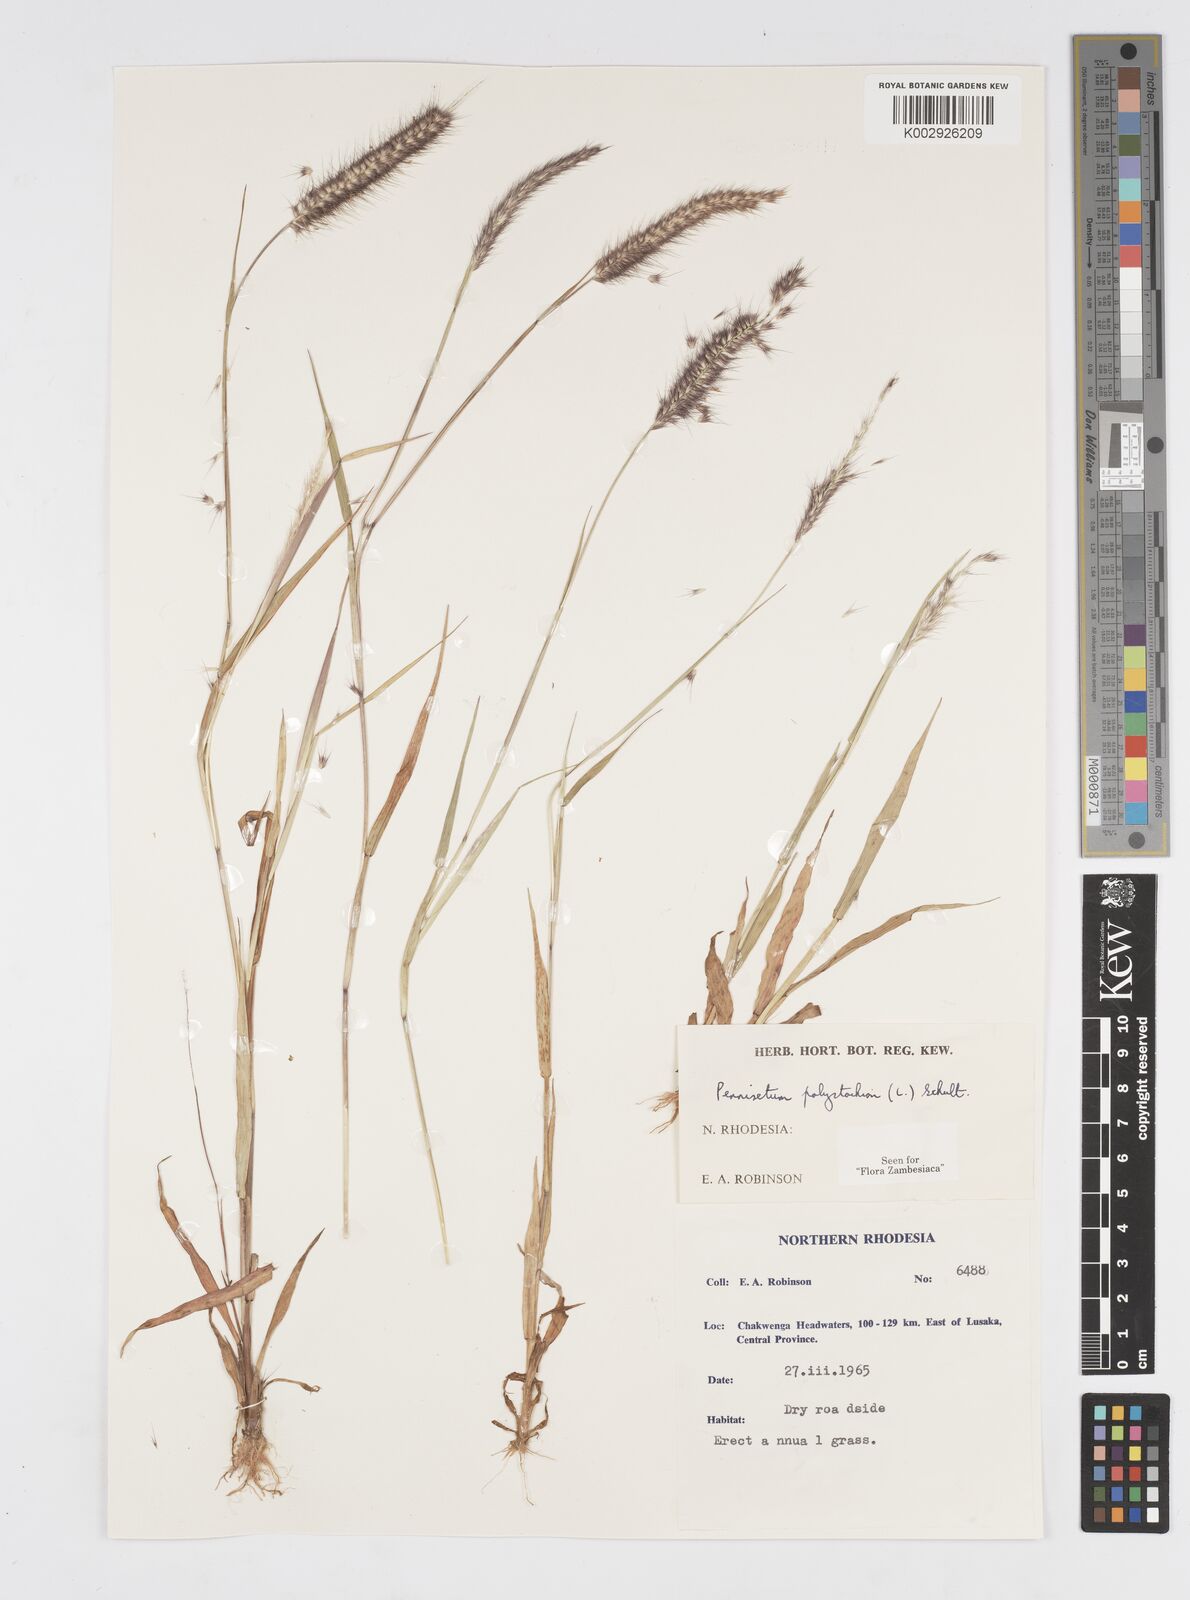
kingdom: Plantae
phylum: Tracheophyta
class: Liliopsida
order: Poales
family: Poaceae
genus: Setaria
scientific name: Setaria parviflora
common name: Knotroot bristle-grass
